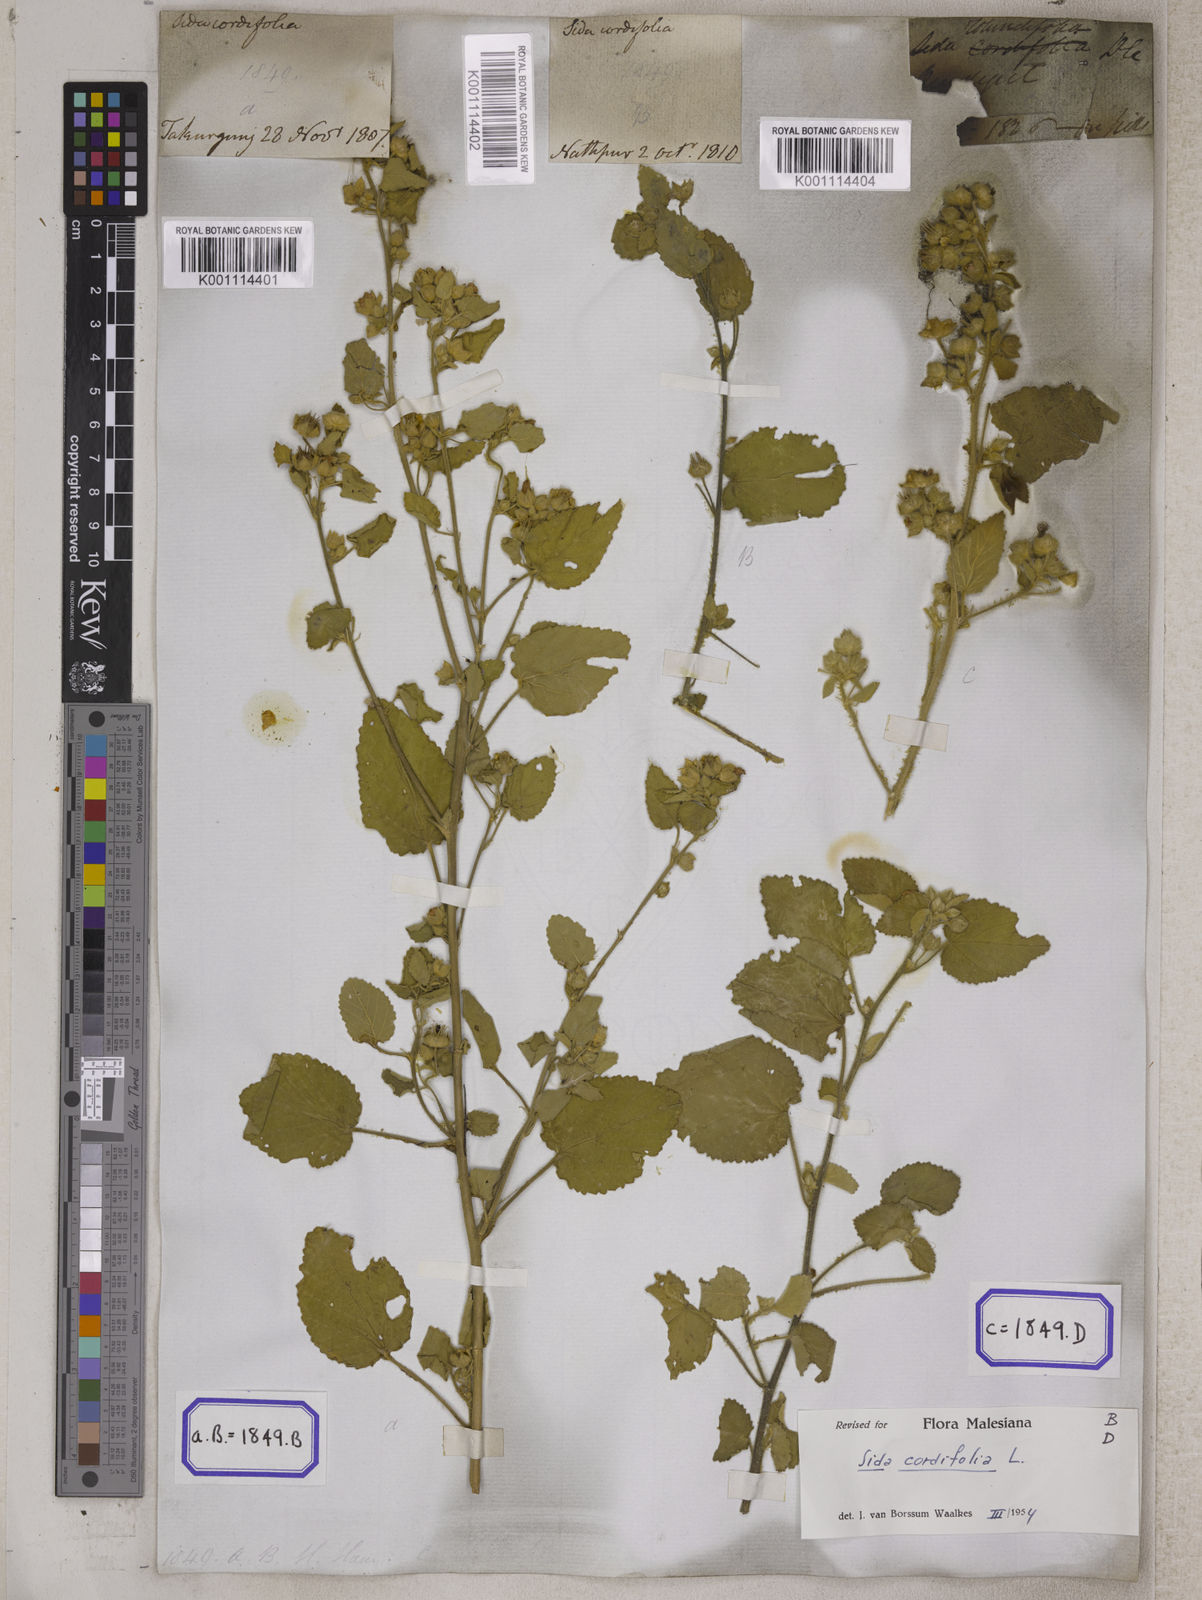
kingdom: Plantae
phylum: Tracheophyta
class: Magnoliopsida
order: Malvales
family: Malvaceae
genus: Sida
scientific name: Sida cordifolia
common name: Ilima
